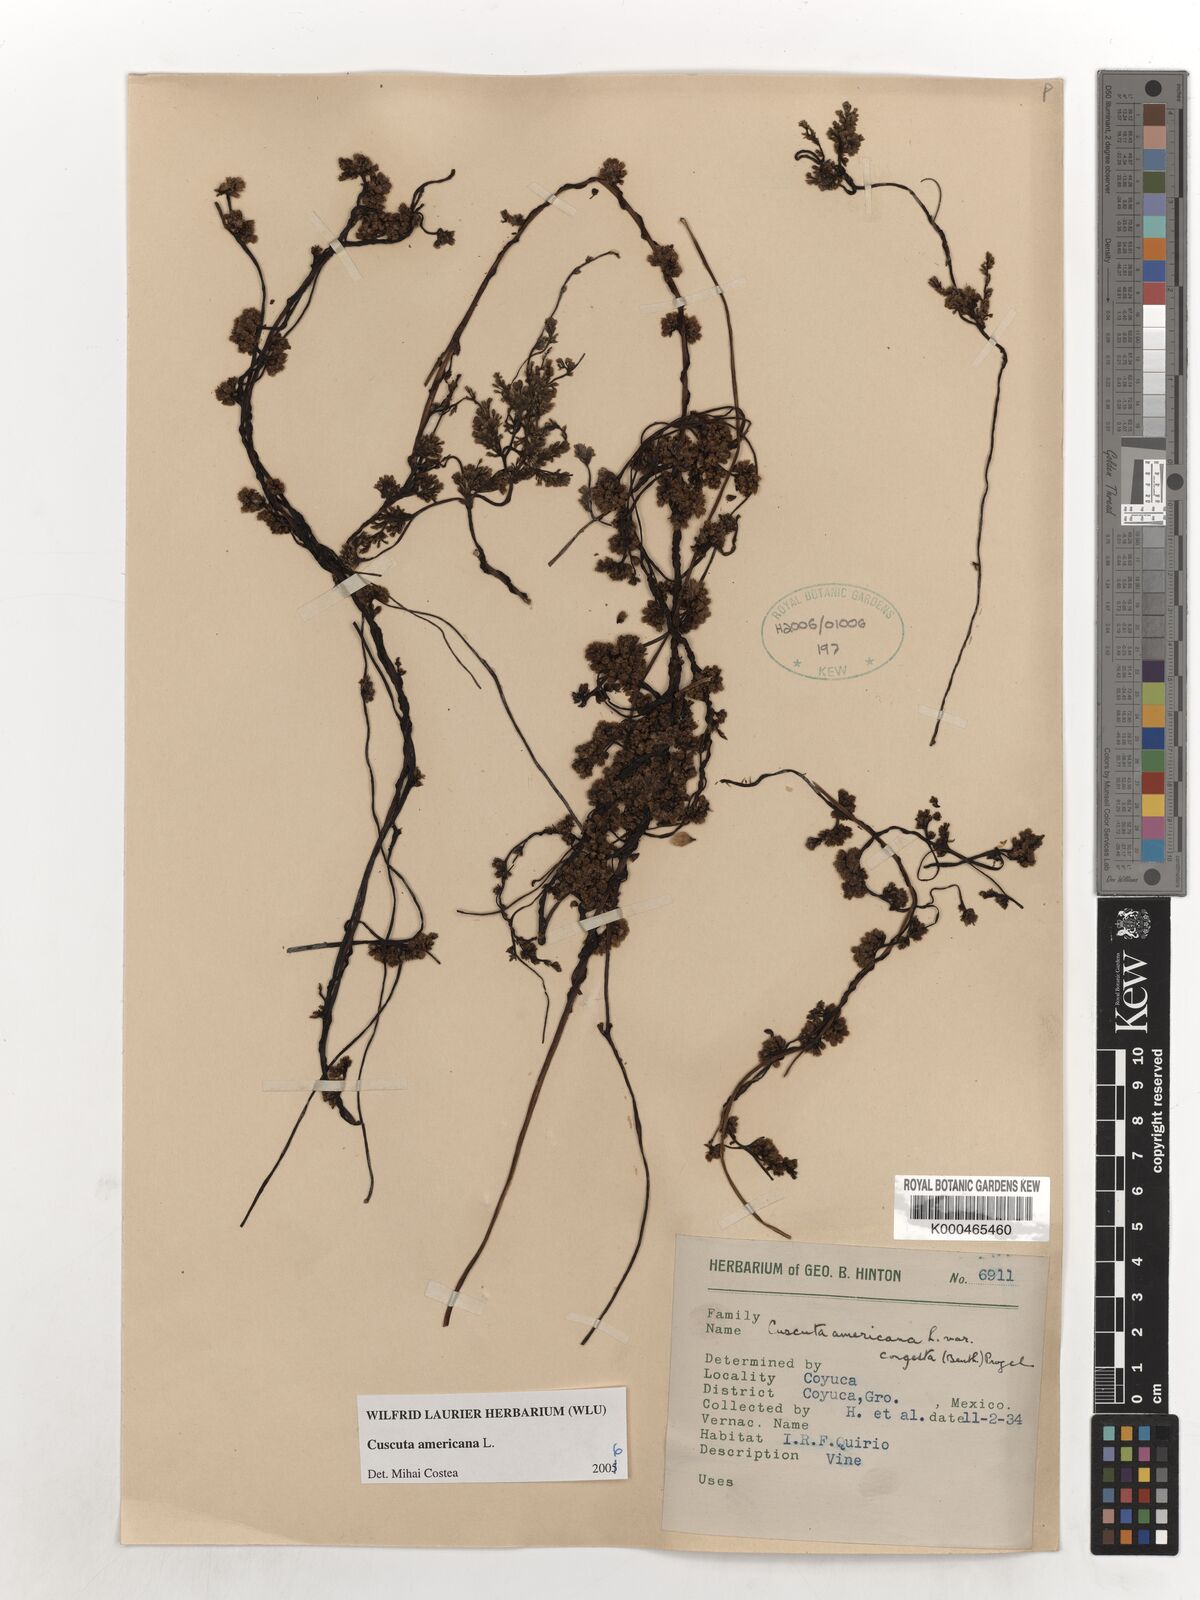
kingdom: Plantae
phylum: Tracheophyta
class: Magnoliopsida
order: Solanales
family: Convolvulaceae
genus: Cuscuta
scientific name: Cuscuta americana
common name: American dodder
